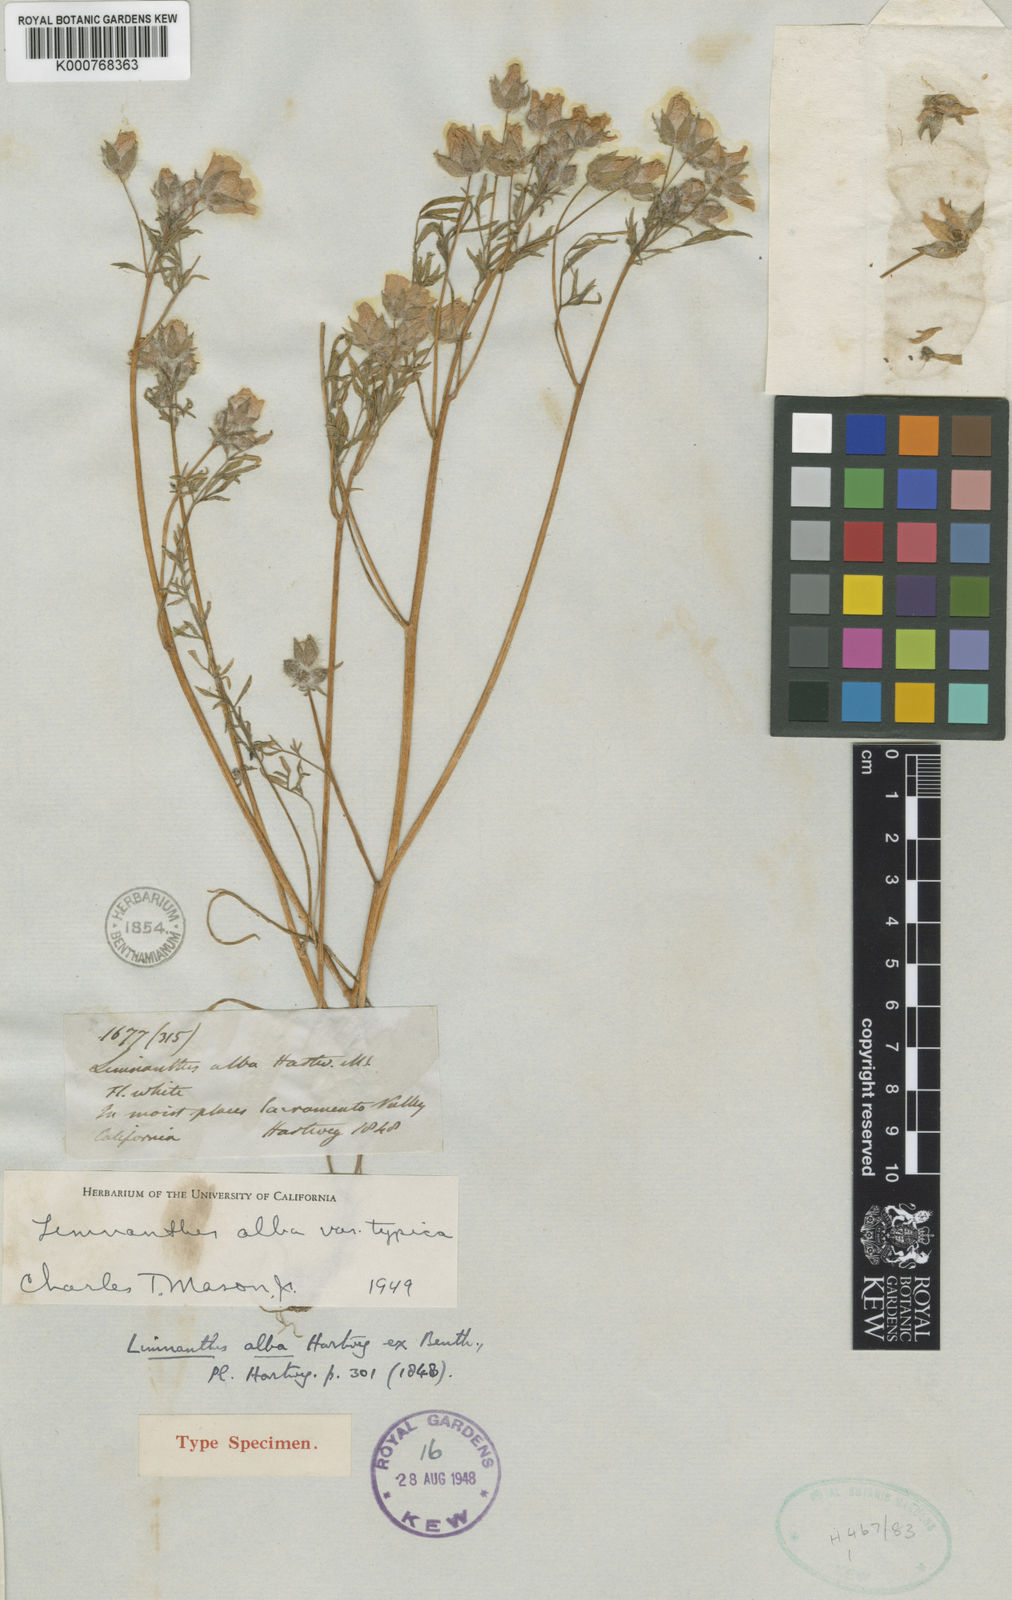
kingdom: Plantae
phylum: Tracheophyta
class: Magnoliopsida
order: Brassicales
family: Limnanthaceae
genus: Limnanthes
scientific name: Limnanthes alba
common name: Meadowfoam
